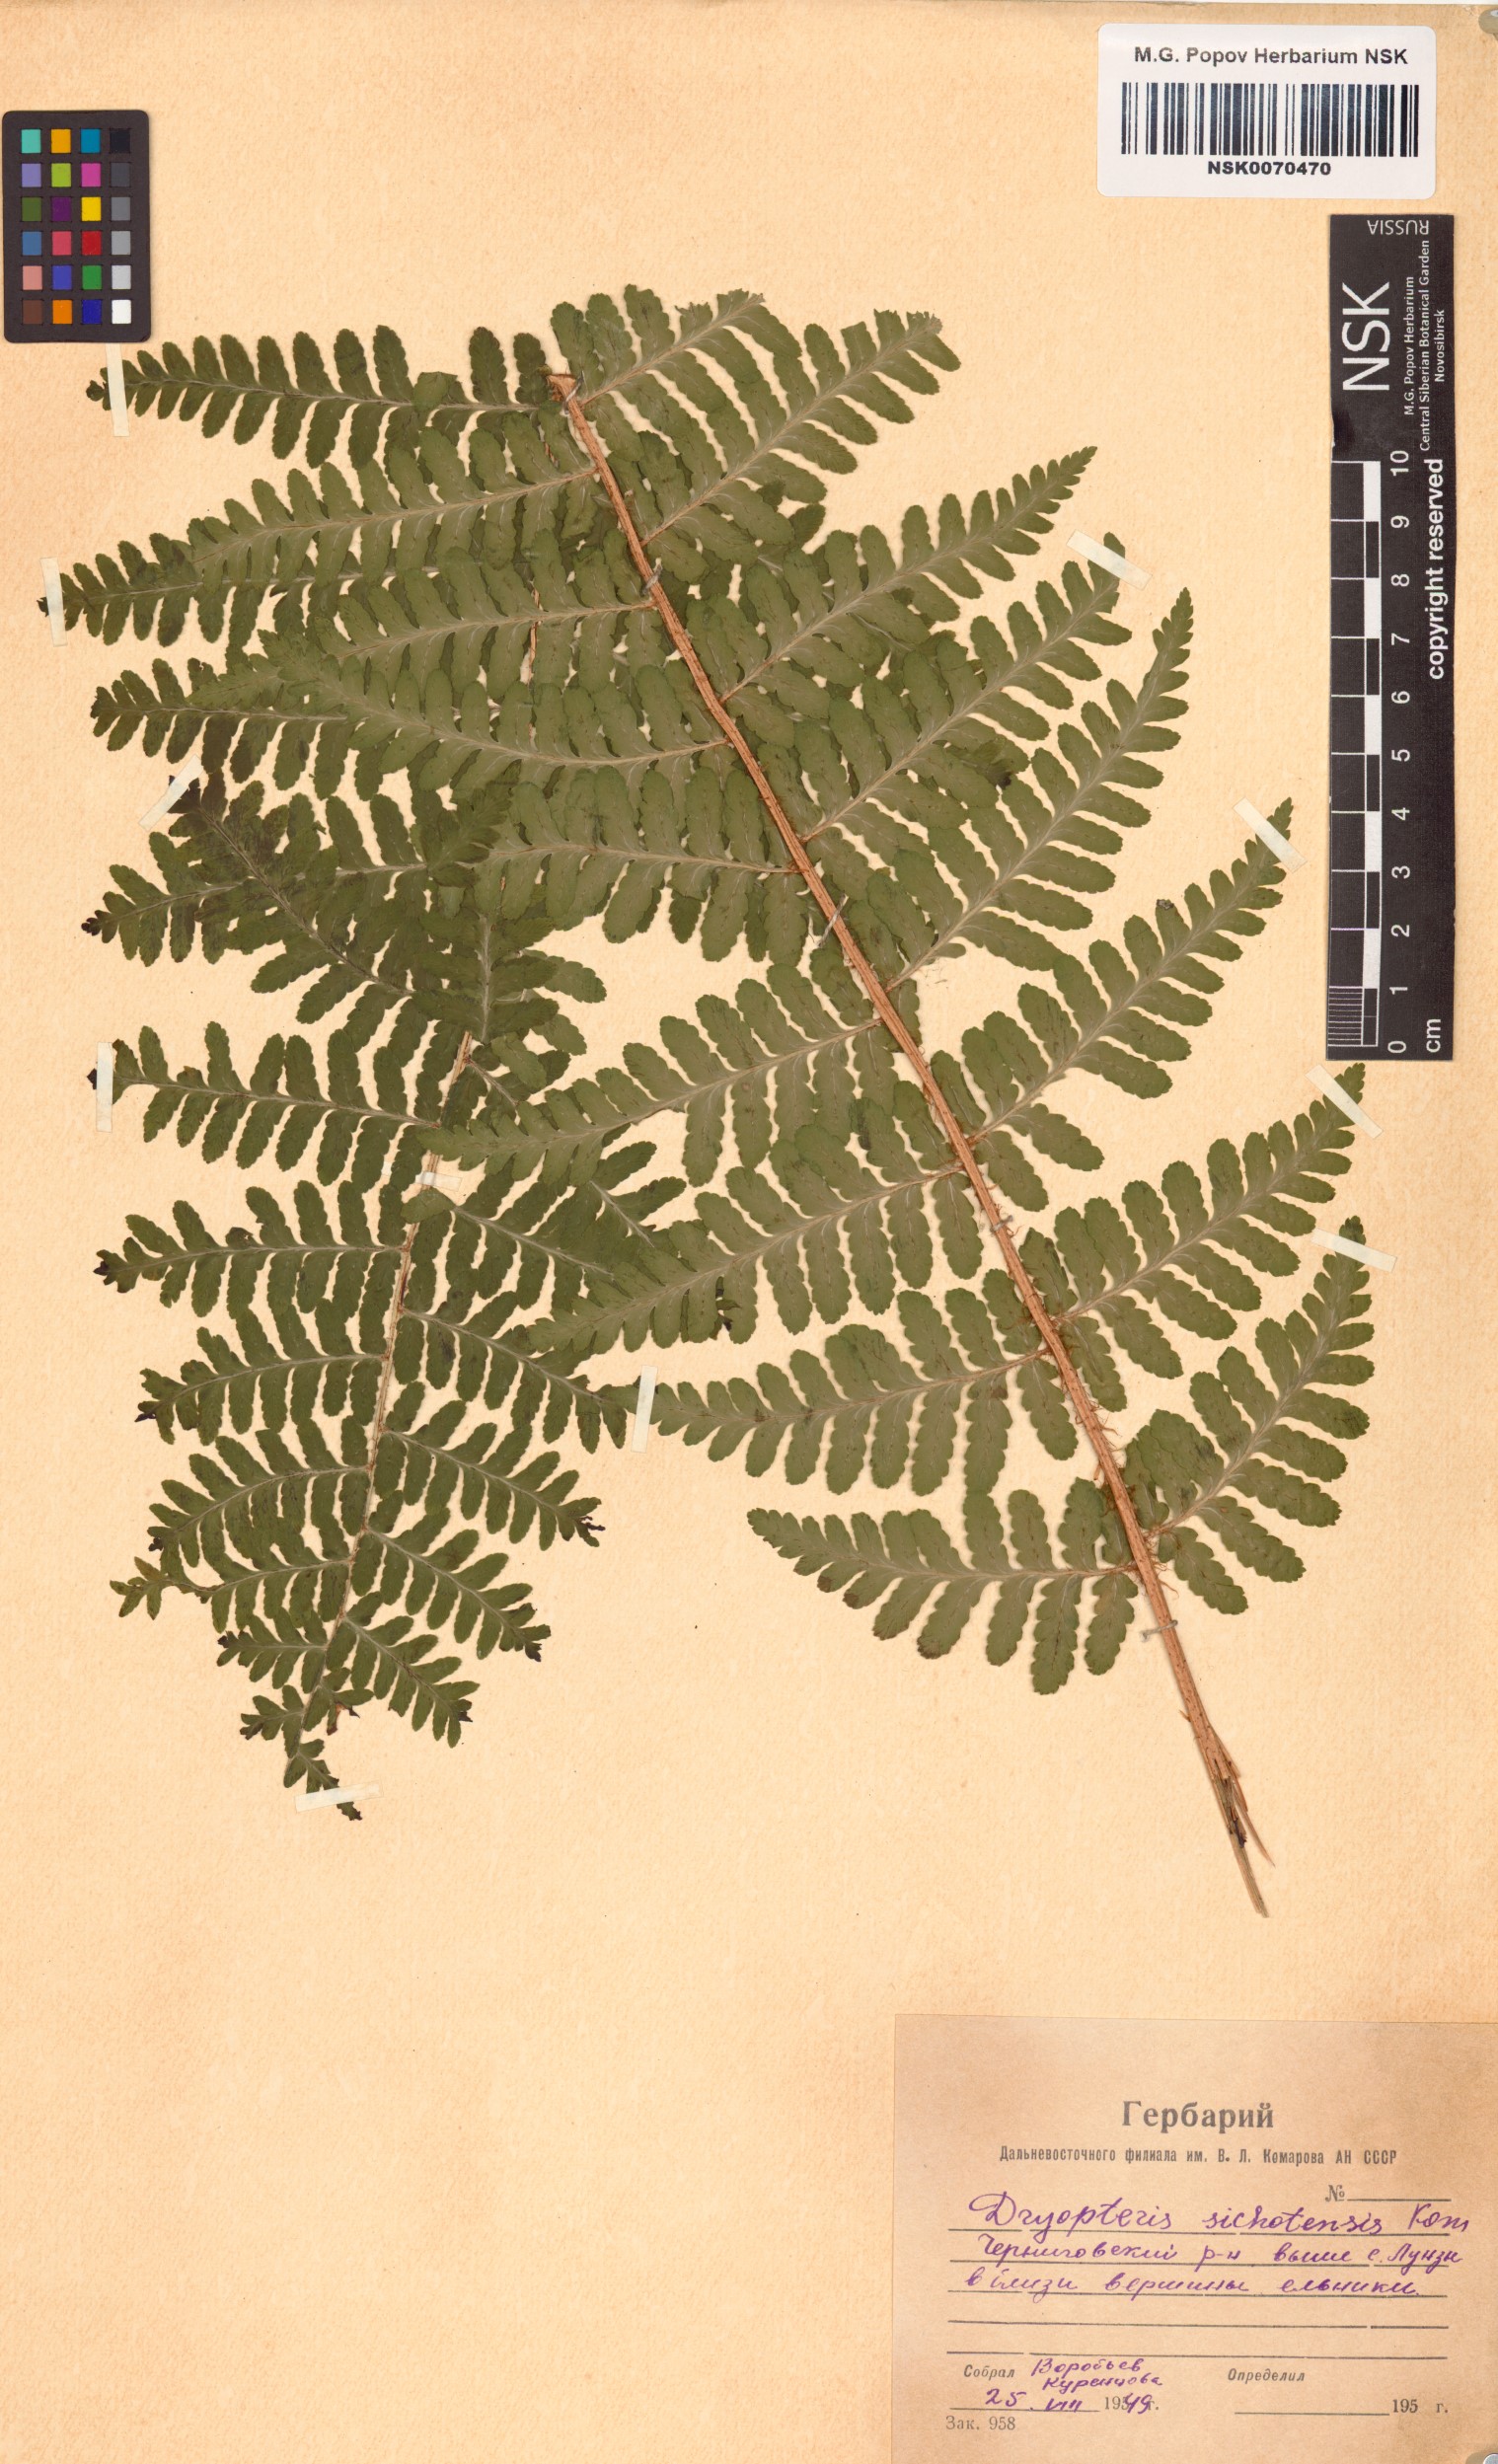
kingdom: Plantae
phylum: Tracheophyta
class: Polypodiopsida
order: Polypodiales
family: Dryopteridaceae
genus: Dryopteris
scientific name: Dryopteris sichotensis
